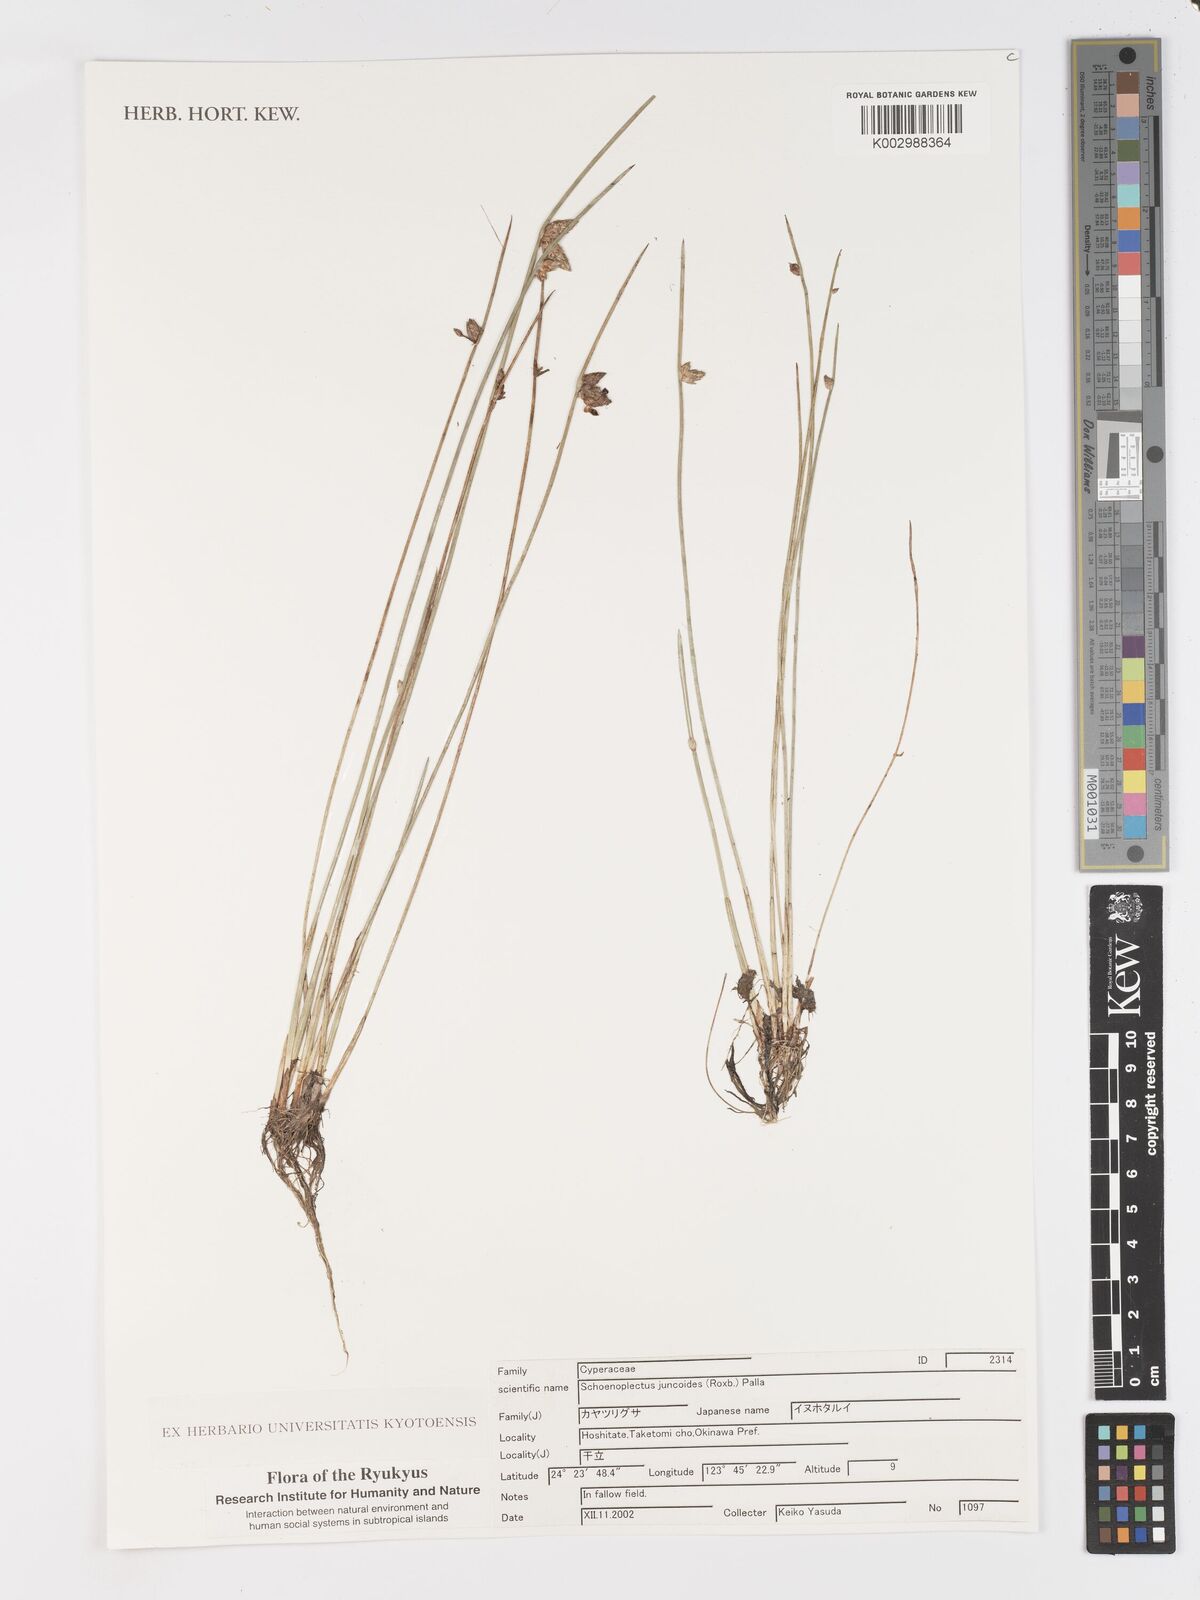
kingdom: Plantae
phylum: Tracheophyta
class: Liliopsida
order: Poales
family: Cyperaceae
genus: Schoenoplectiella
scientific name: Schoenoplectiella juncoides
